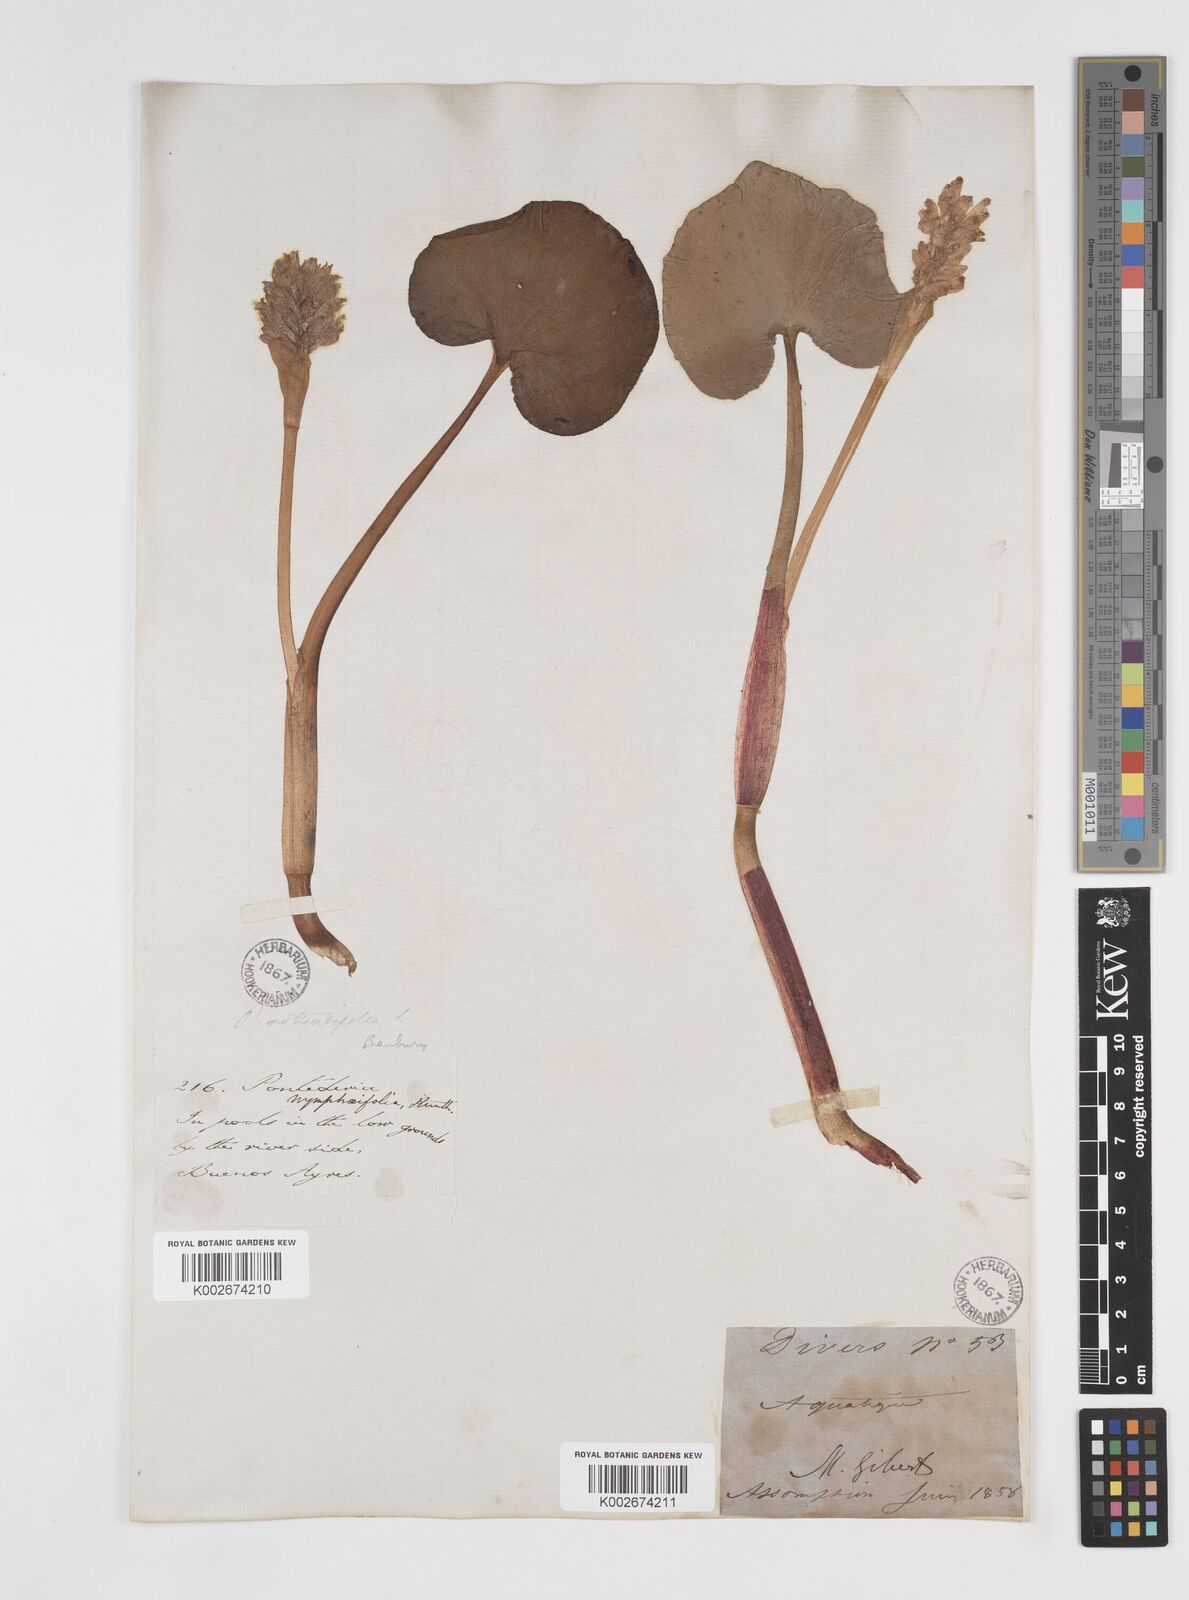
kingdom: Plantae
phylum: Tracheophyta
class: Liliopsida
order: Commelinales
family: Pontederiaceae
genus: Pontederia
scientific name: Pontederia rotundifolia
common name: Tropical pickerel-weed
